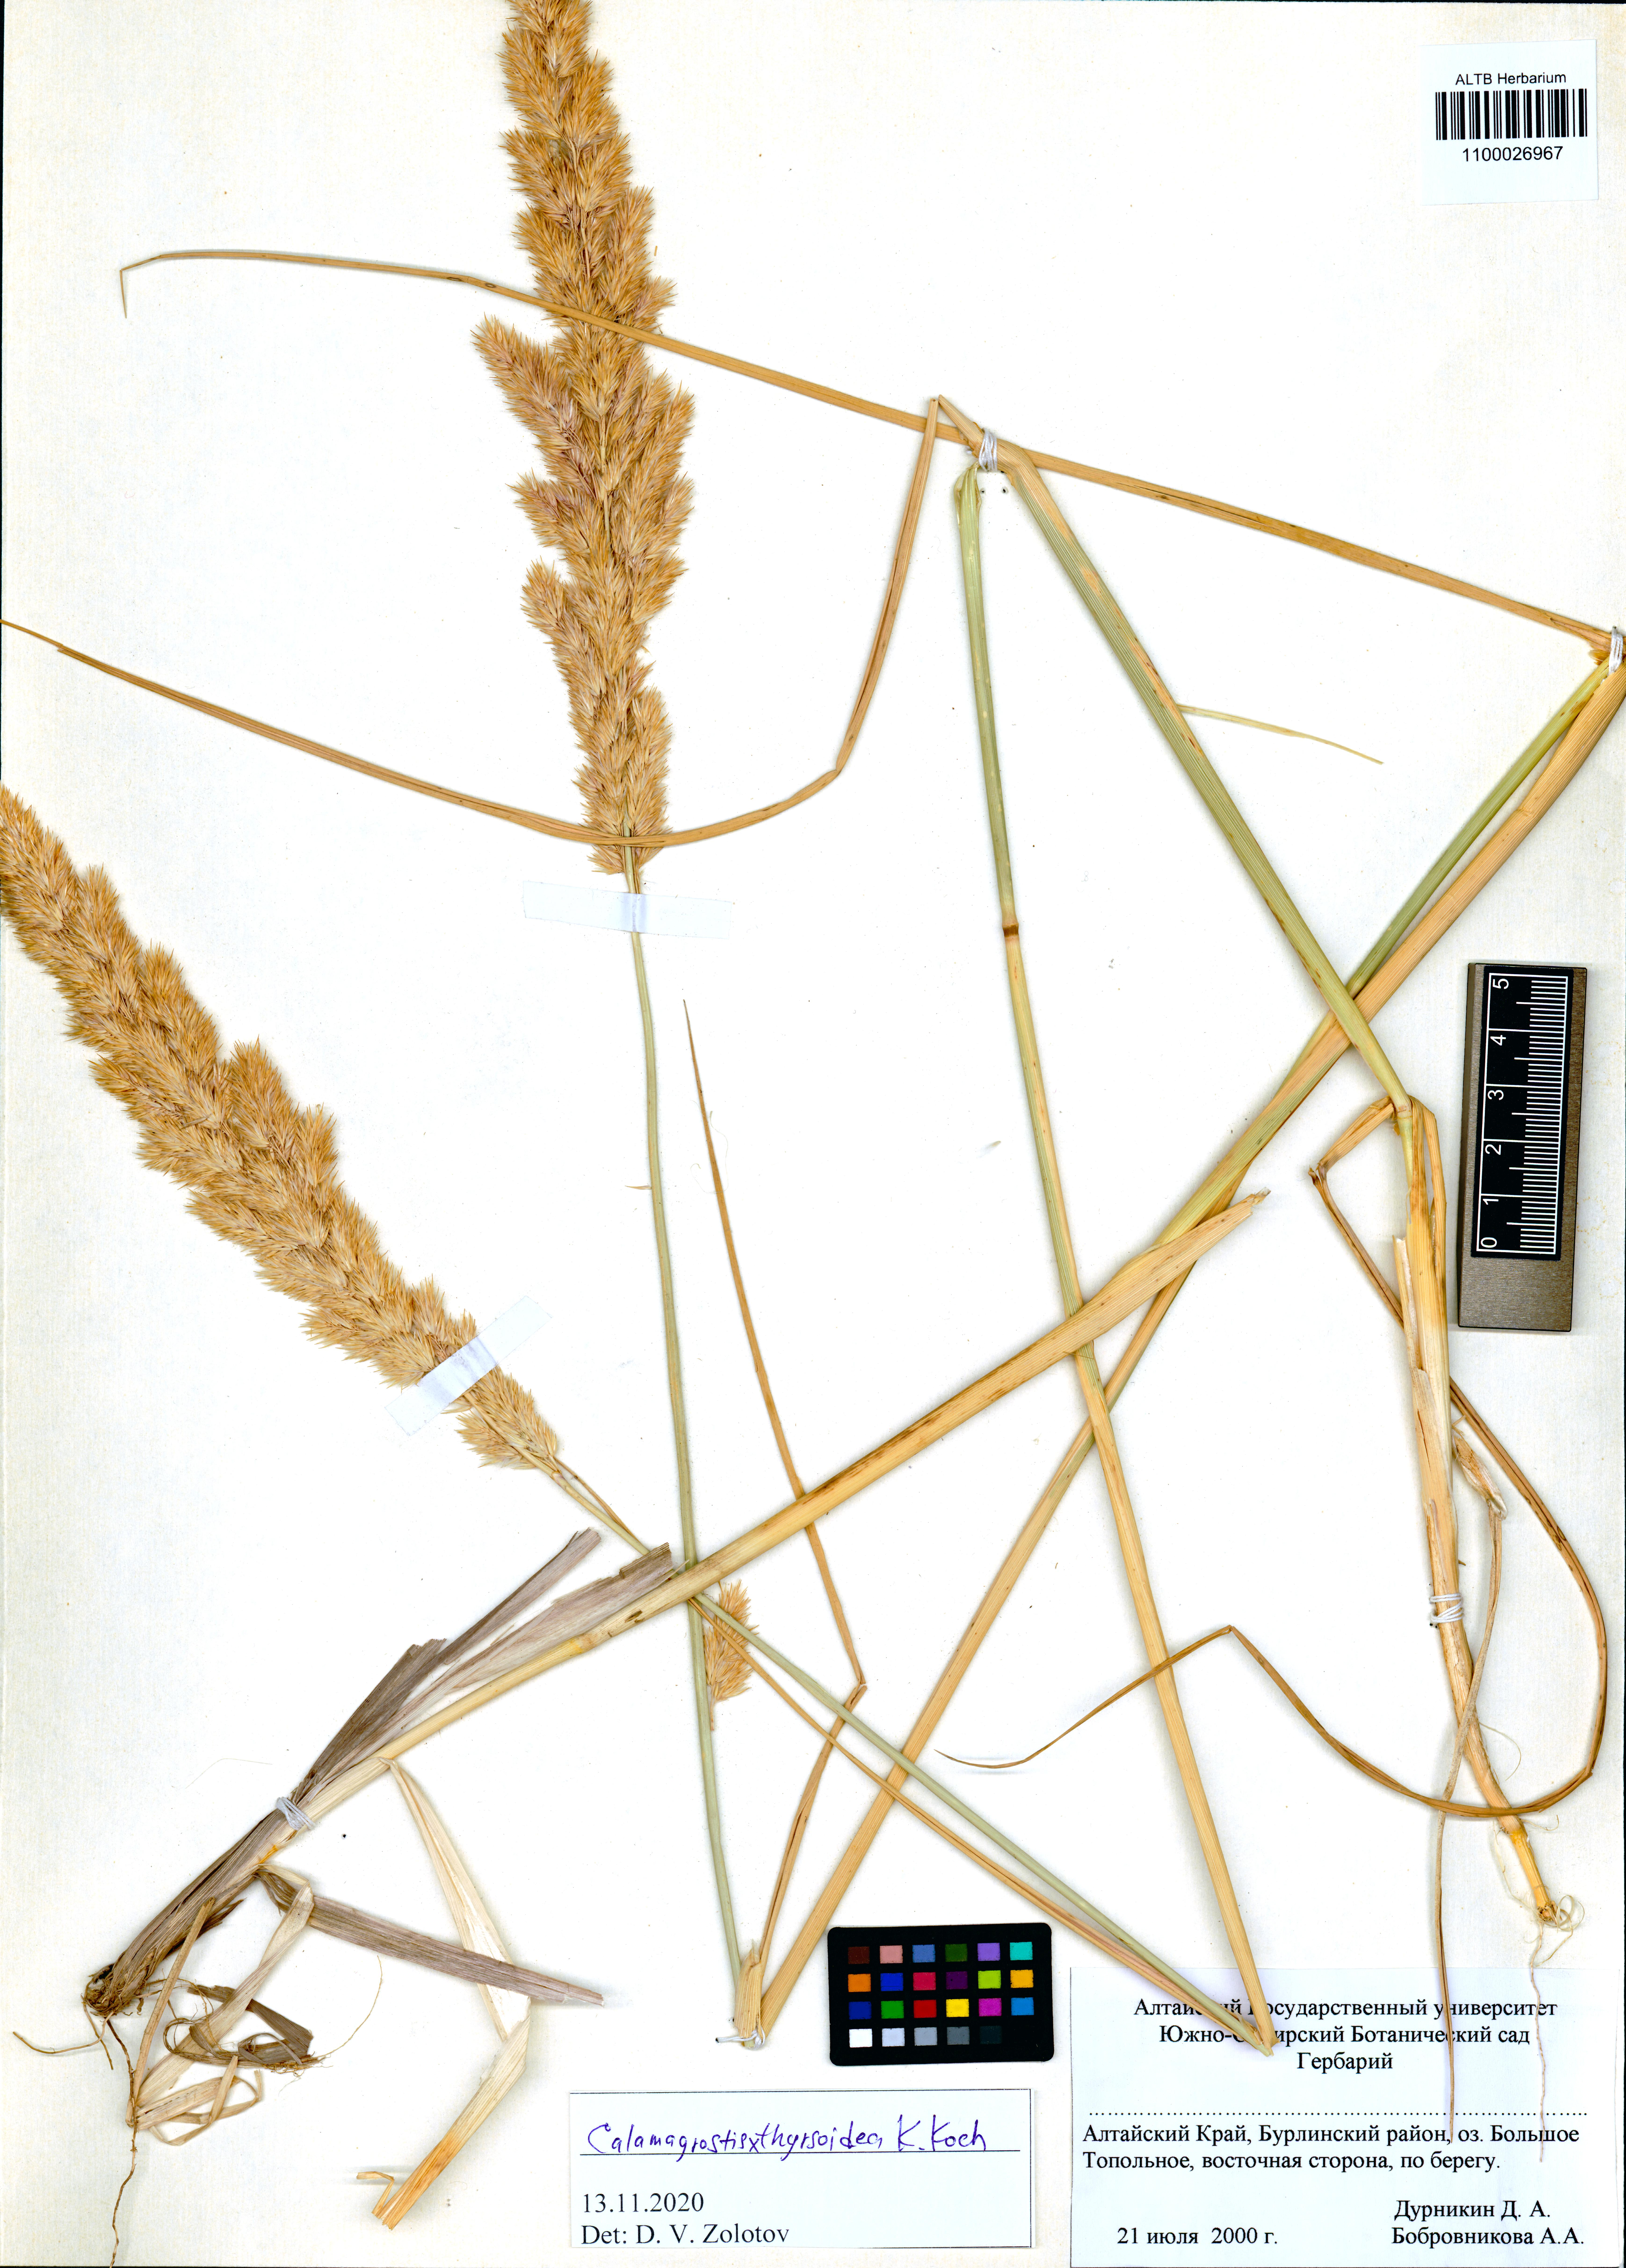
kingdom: Plantae
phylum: Tracheophyta
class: Liliopsida
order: Poales
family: Poaceae
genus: Calamagrostis
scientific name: Calamagrostis epigejos x pseudophragmites
